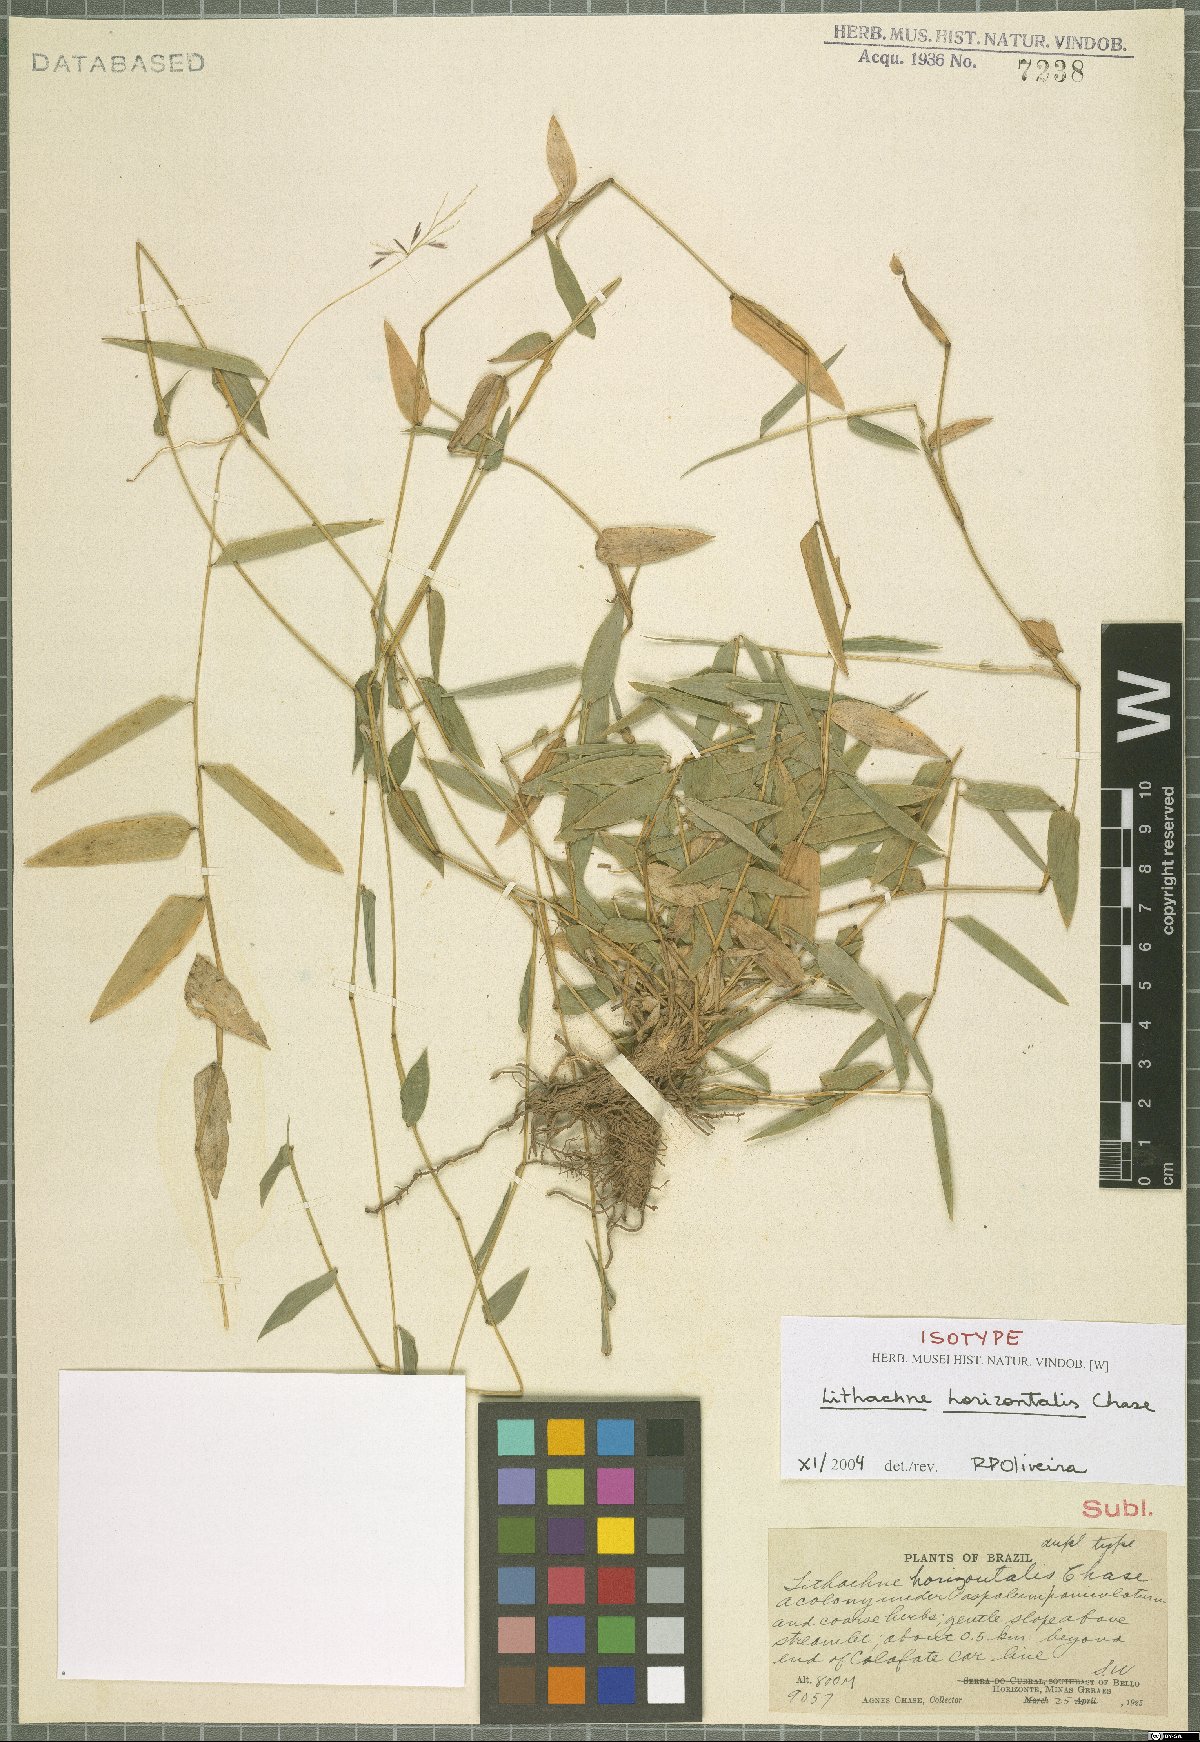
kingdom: Plantae
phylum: Tracheophyta
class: Liliopsida
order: Poales
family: Poaceae
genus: Lithachne
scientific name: Lithachne horizontalis
